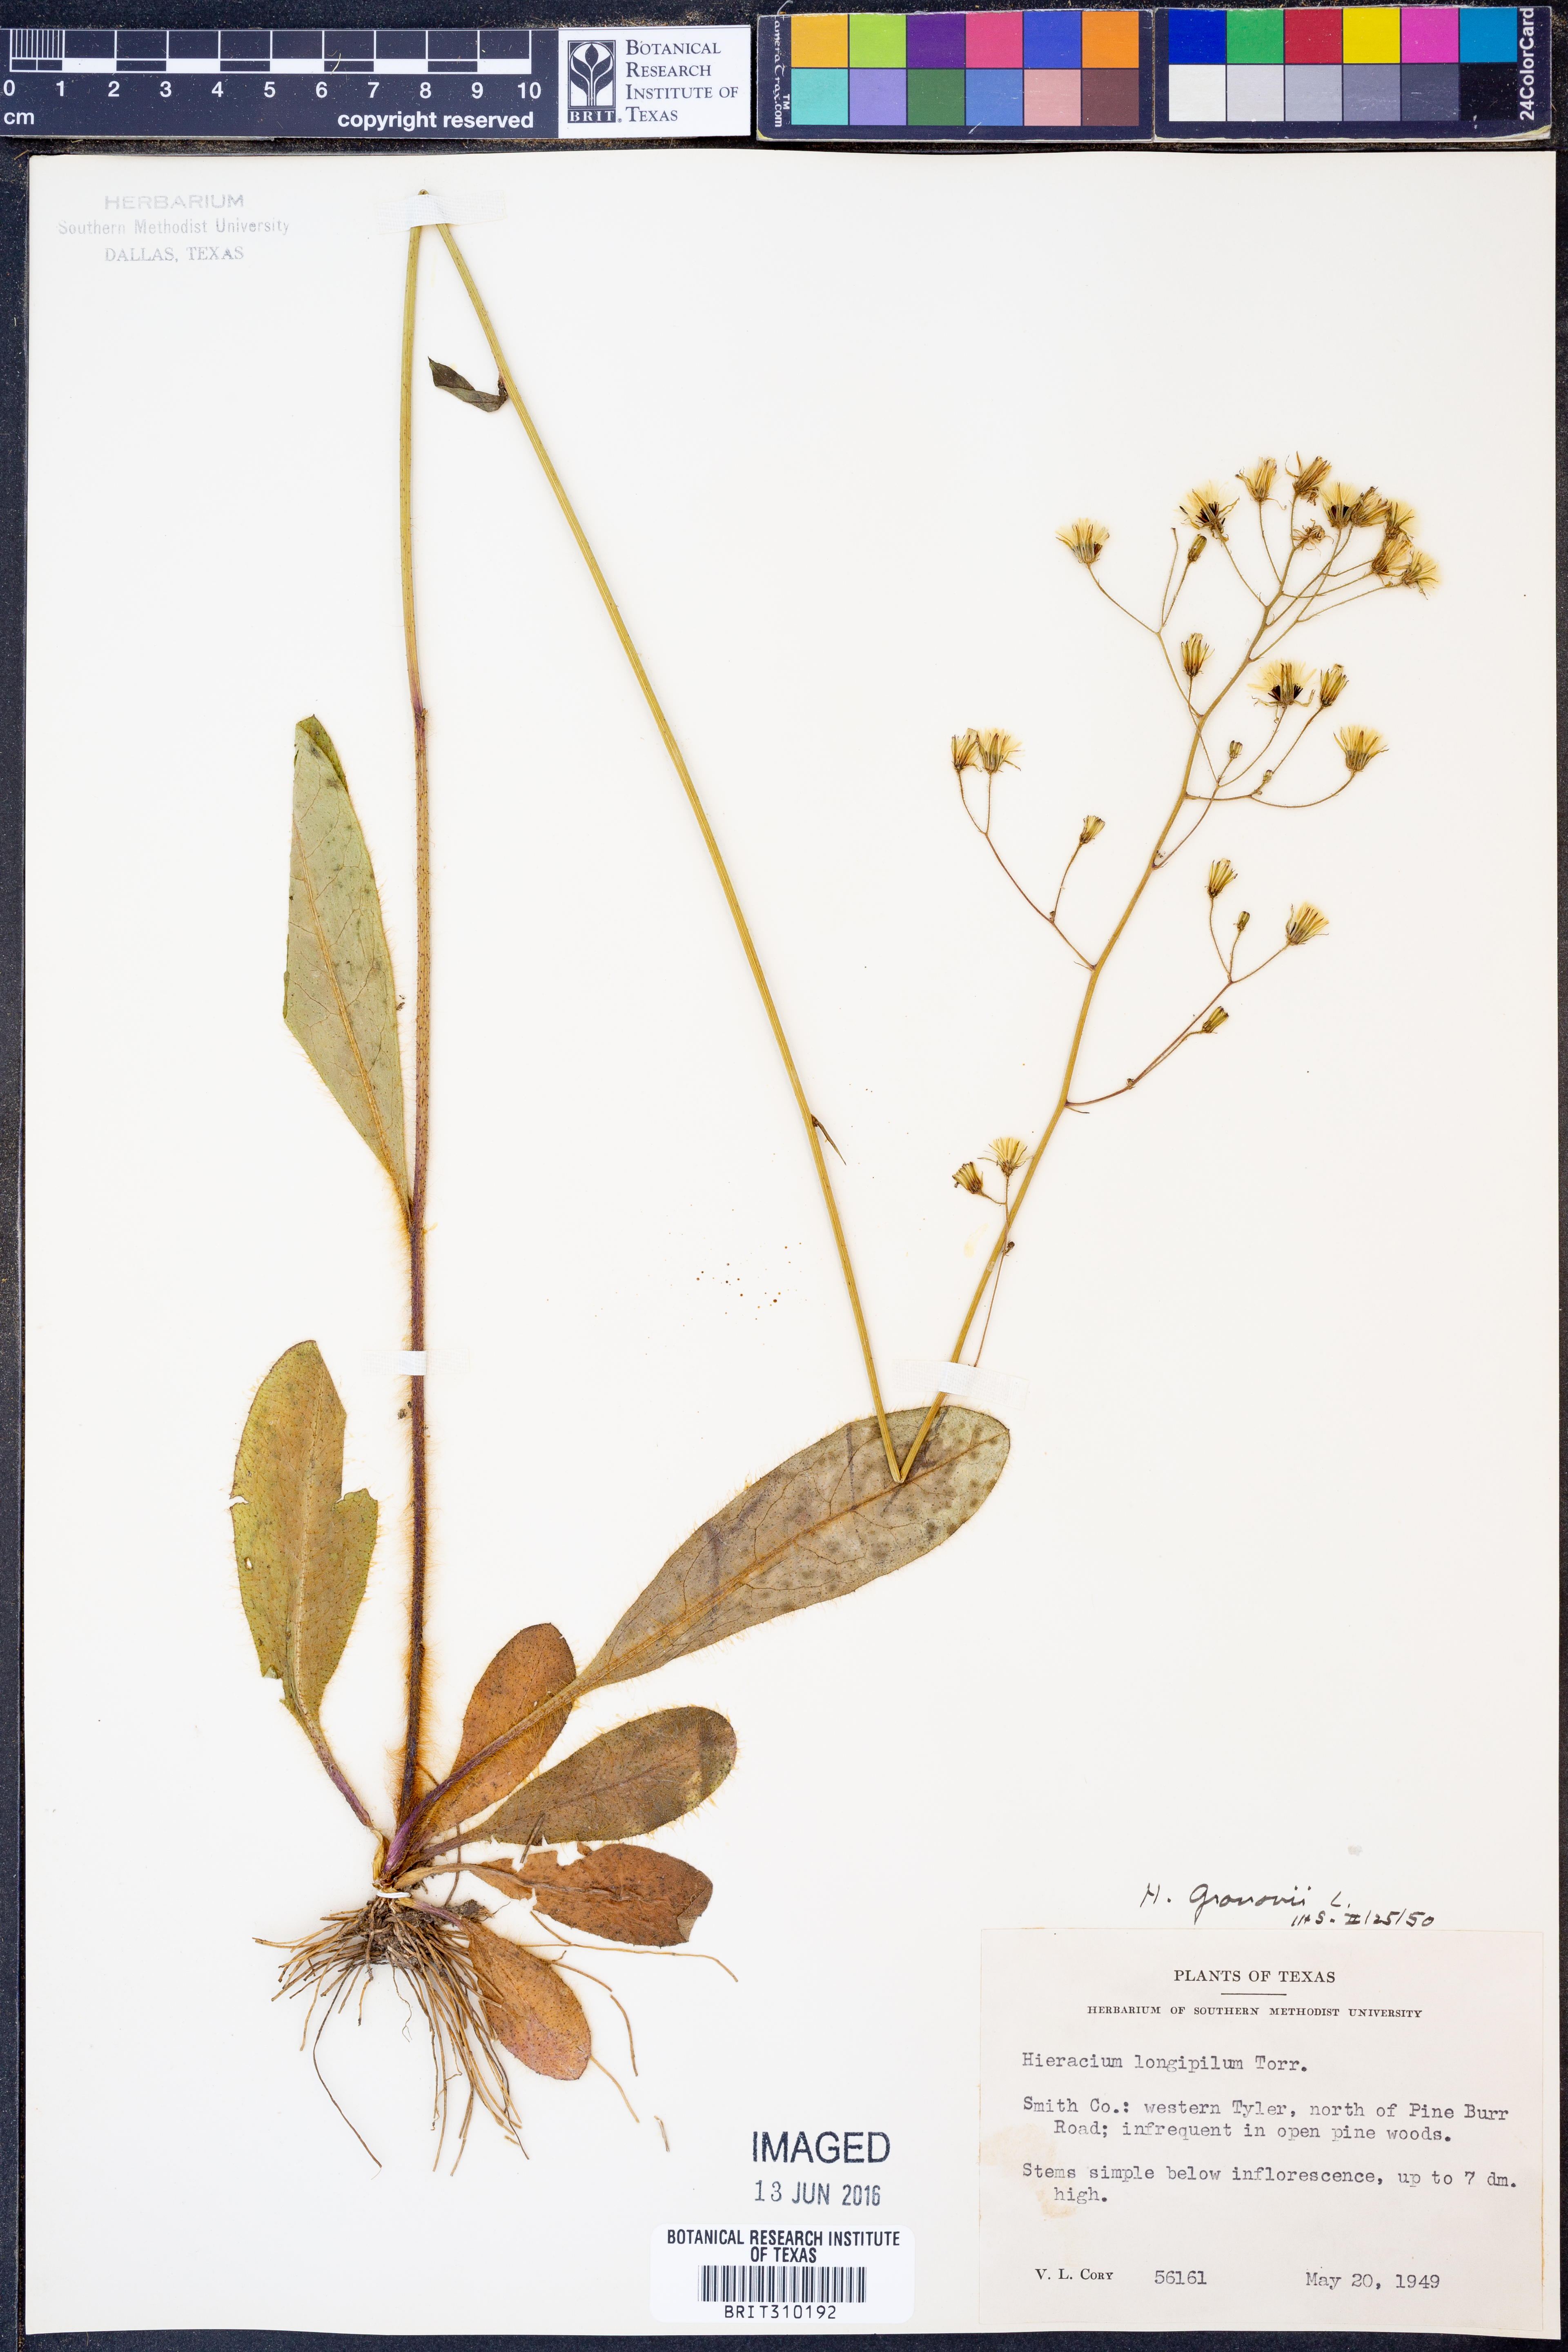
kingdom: Plantae
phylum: Tracheophyta
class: Magnoliopsida
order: Asterales
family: Asteraceae
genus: Hieracium
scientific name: Hieracium gronovii
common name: Beaked hawkweed
